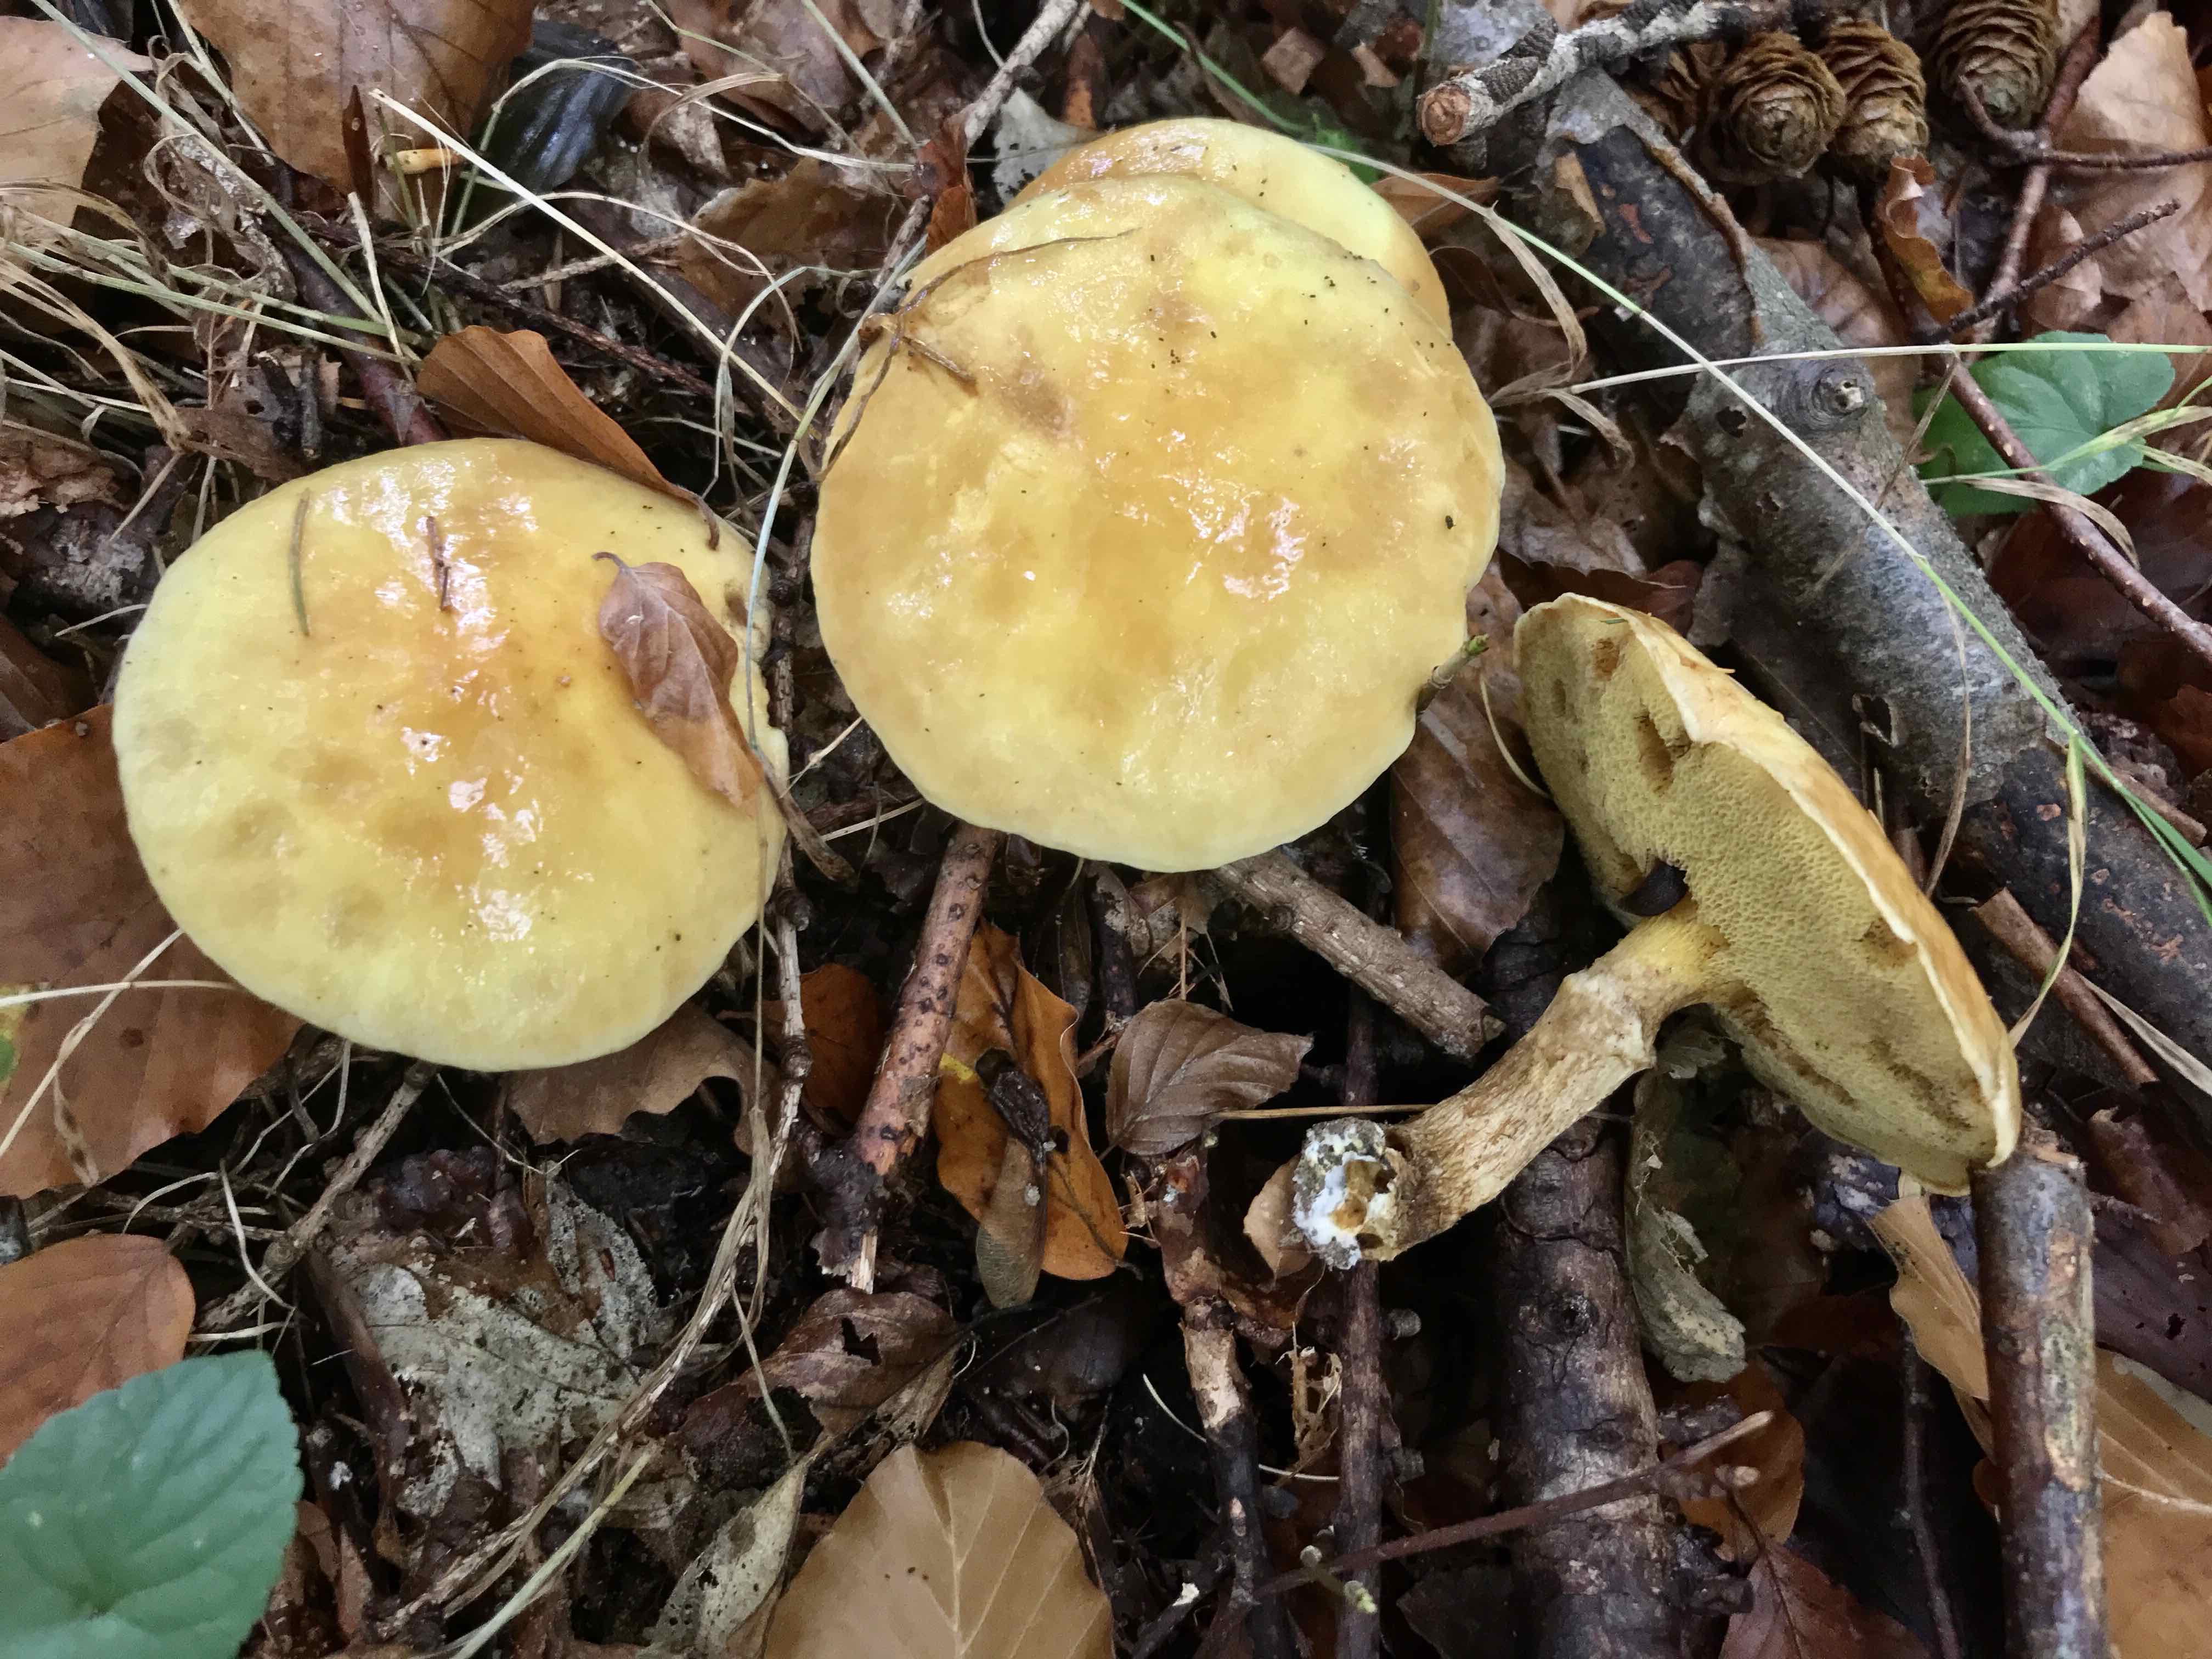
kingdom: Fungi
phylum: Basidiomycota
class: Agaricomycetes
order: Boletales
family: Suillaceae
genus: Suillus
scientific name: Suillus grevillei
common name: lærke-slimrørhat
